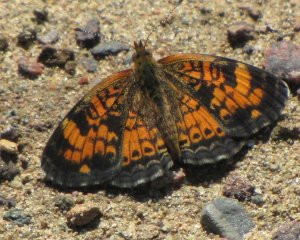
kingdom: Animalia
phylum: Arthropoda
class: Insecta
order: Lepidoptera
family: Nymphalidae
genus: Phyciodes
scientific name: Phyciodes tharos
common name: Northern Crescent
